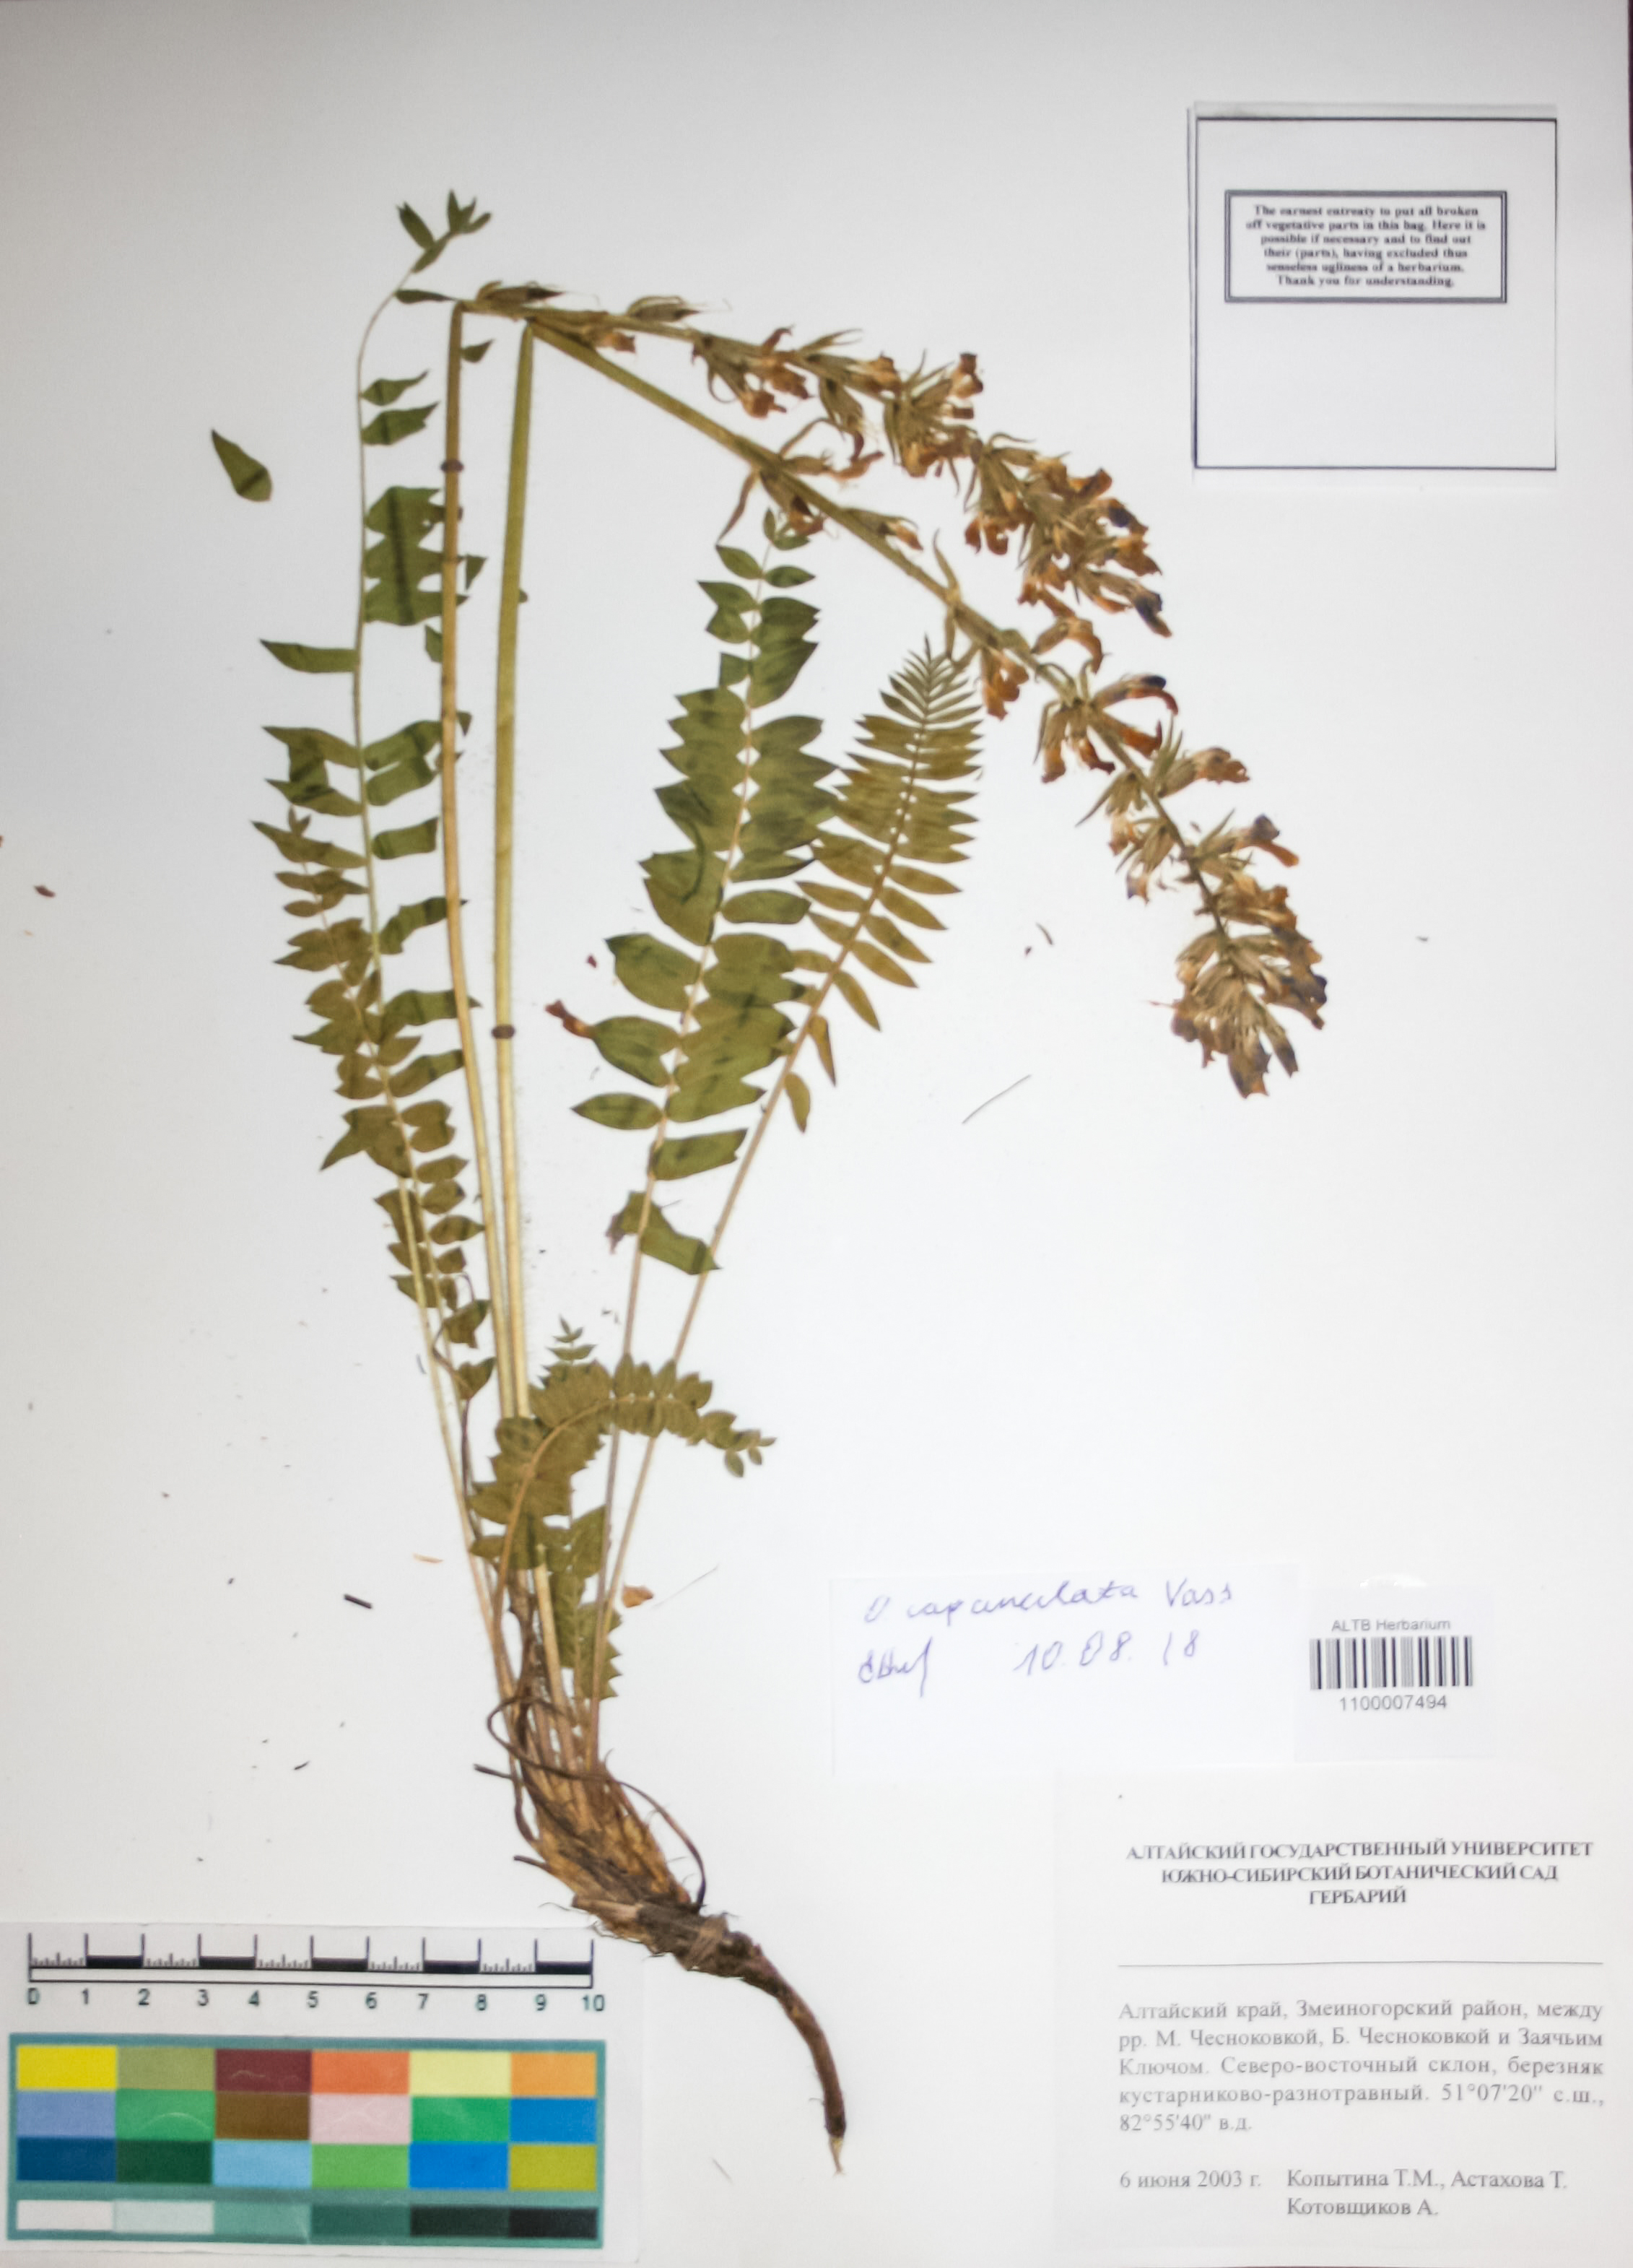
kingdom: Plantae
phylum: Tracheophyta
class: Magnoliopsida
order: Fabales
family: Fabaceae
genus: Oxytropis
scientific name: Oxytropis campanulata
